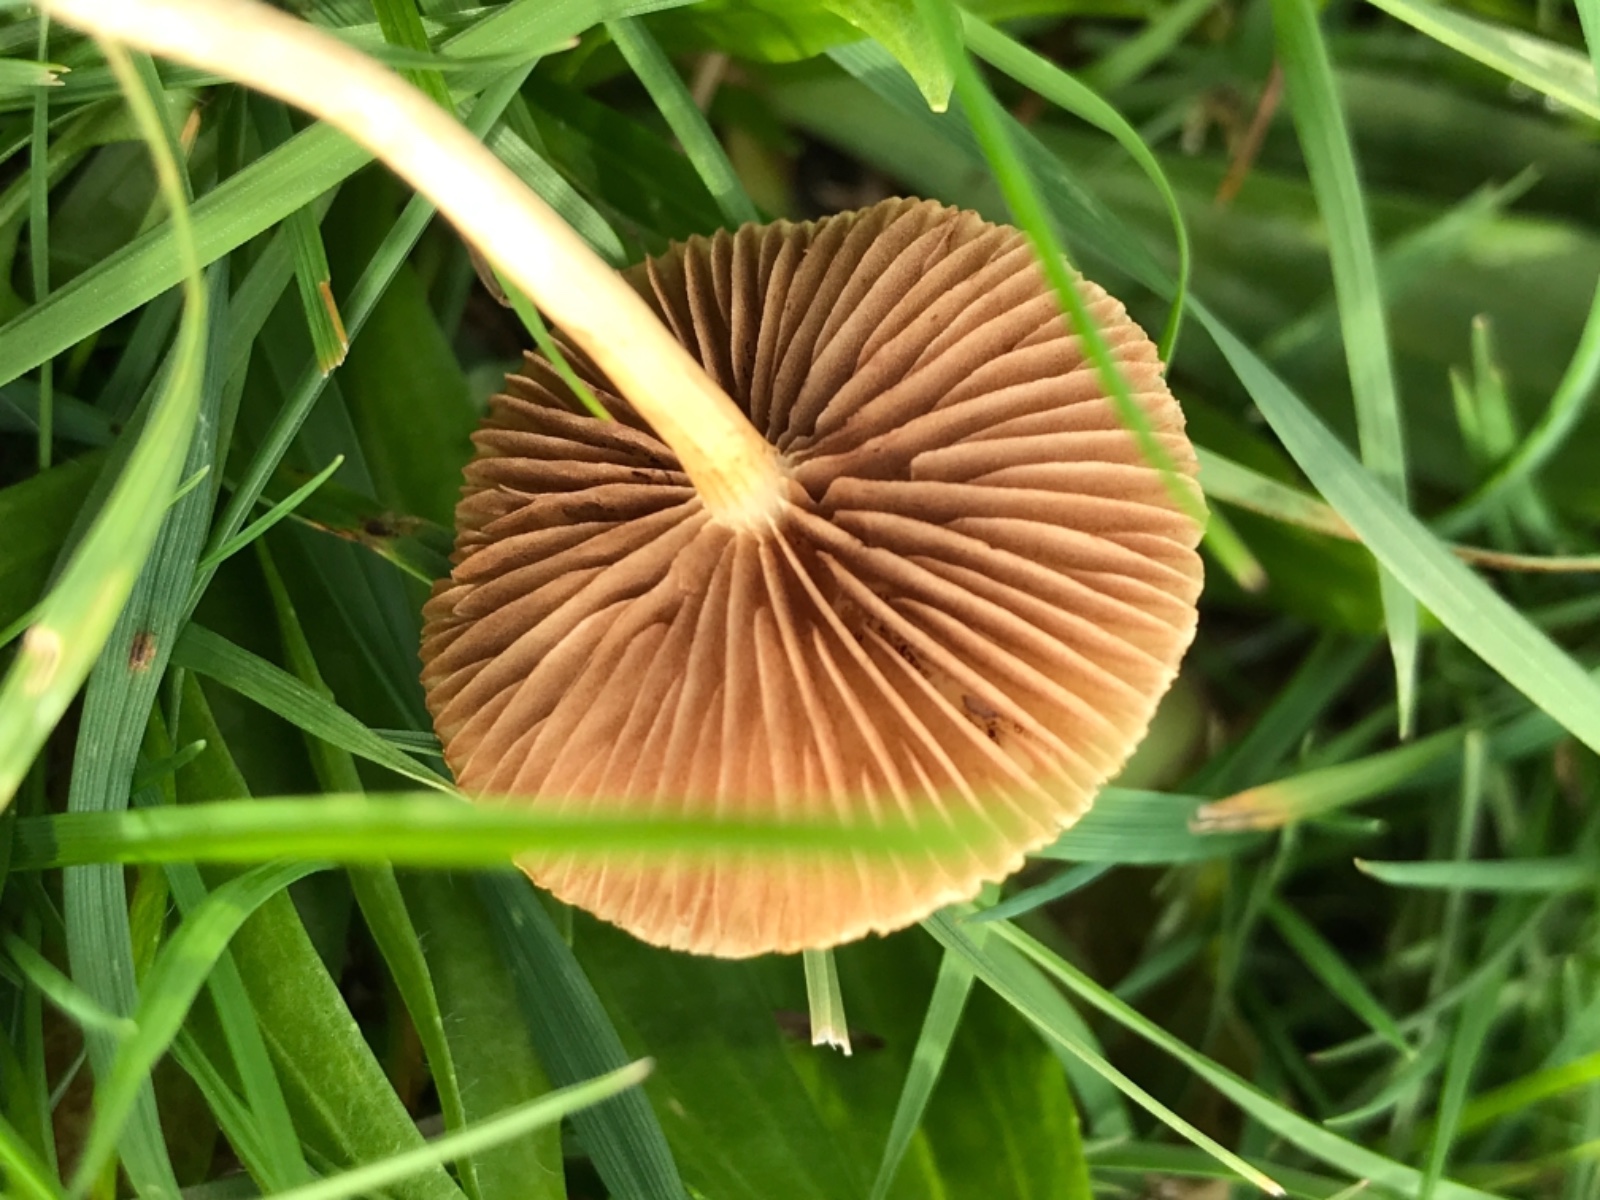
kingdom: Fungi
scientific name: Fungi
